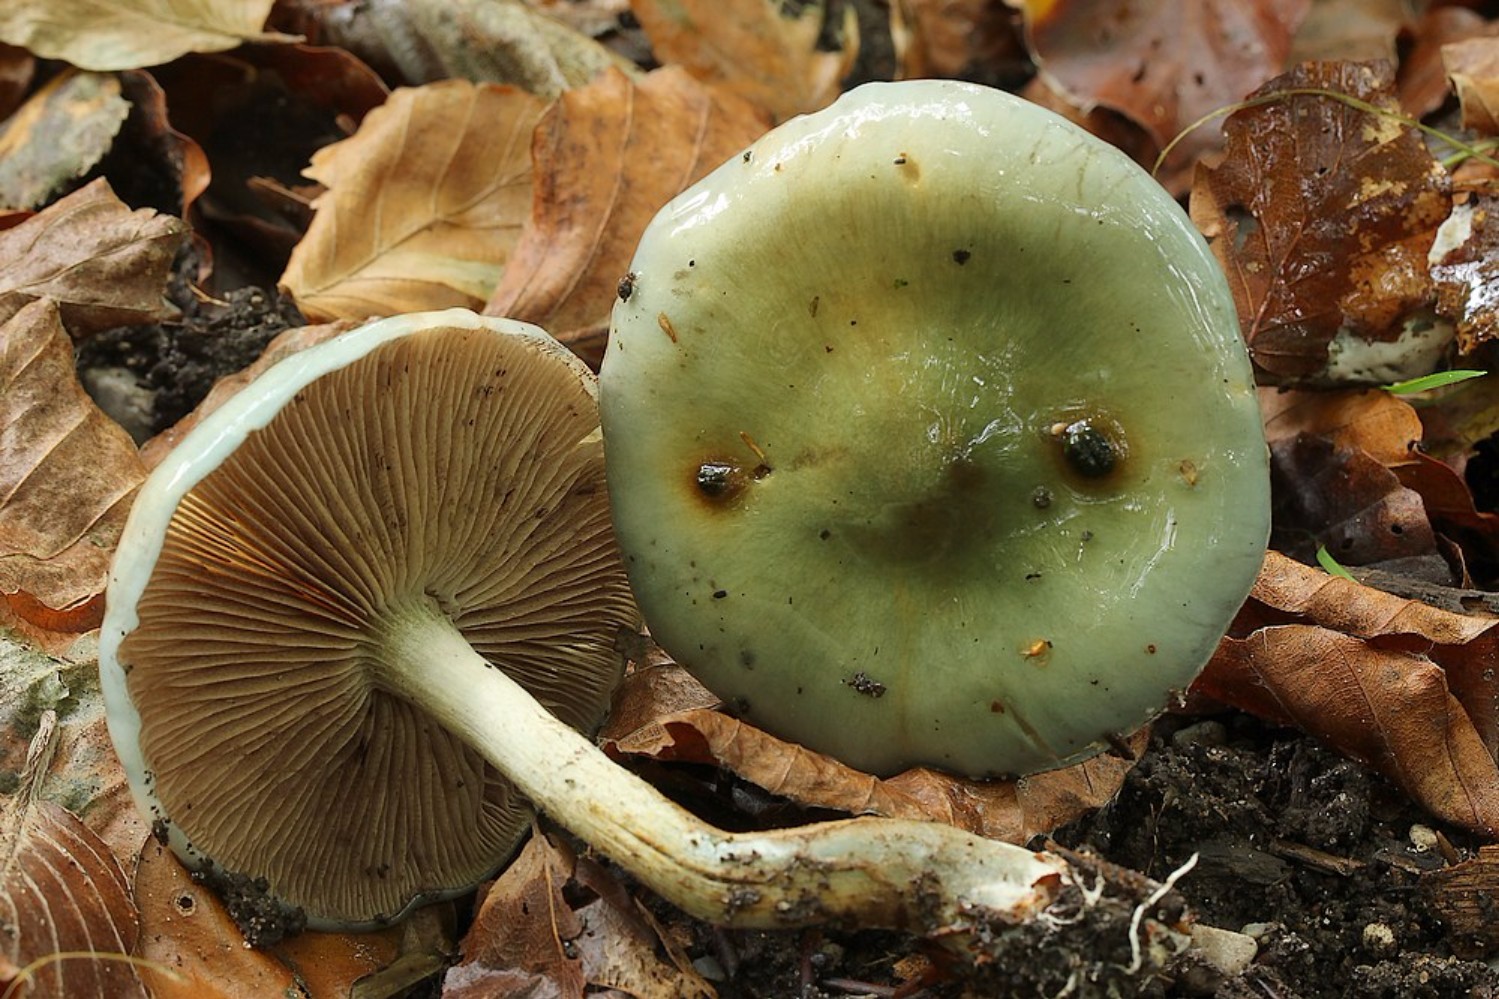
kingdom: Fungi
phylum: Basidiomycota
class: Agaricomycetes
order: Agaricales
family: Strophariaceae
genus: Stropharia
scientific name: Stropharia
